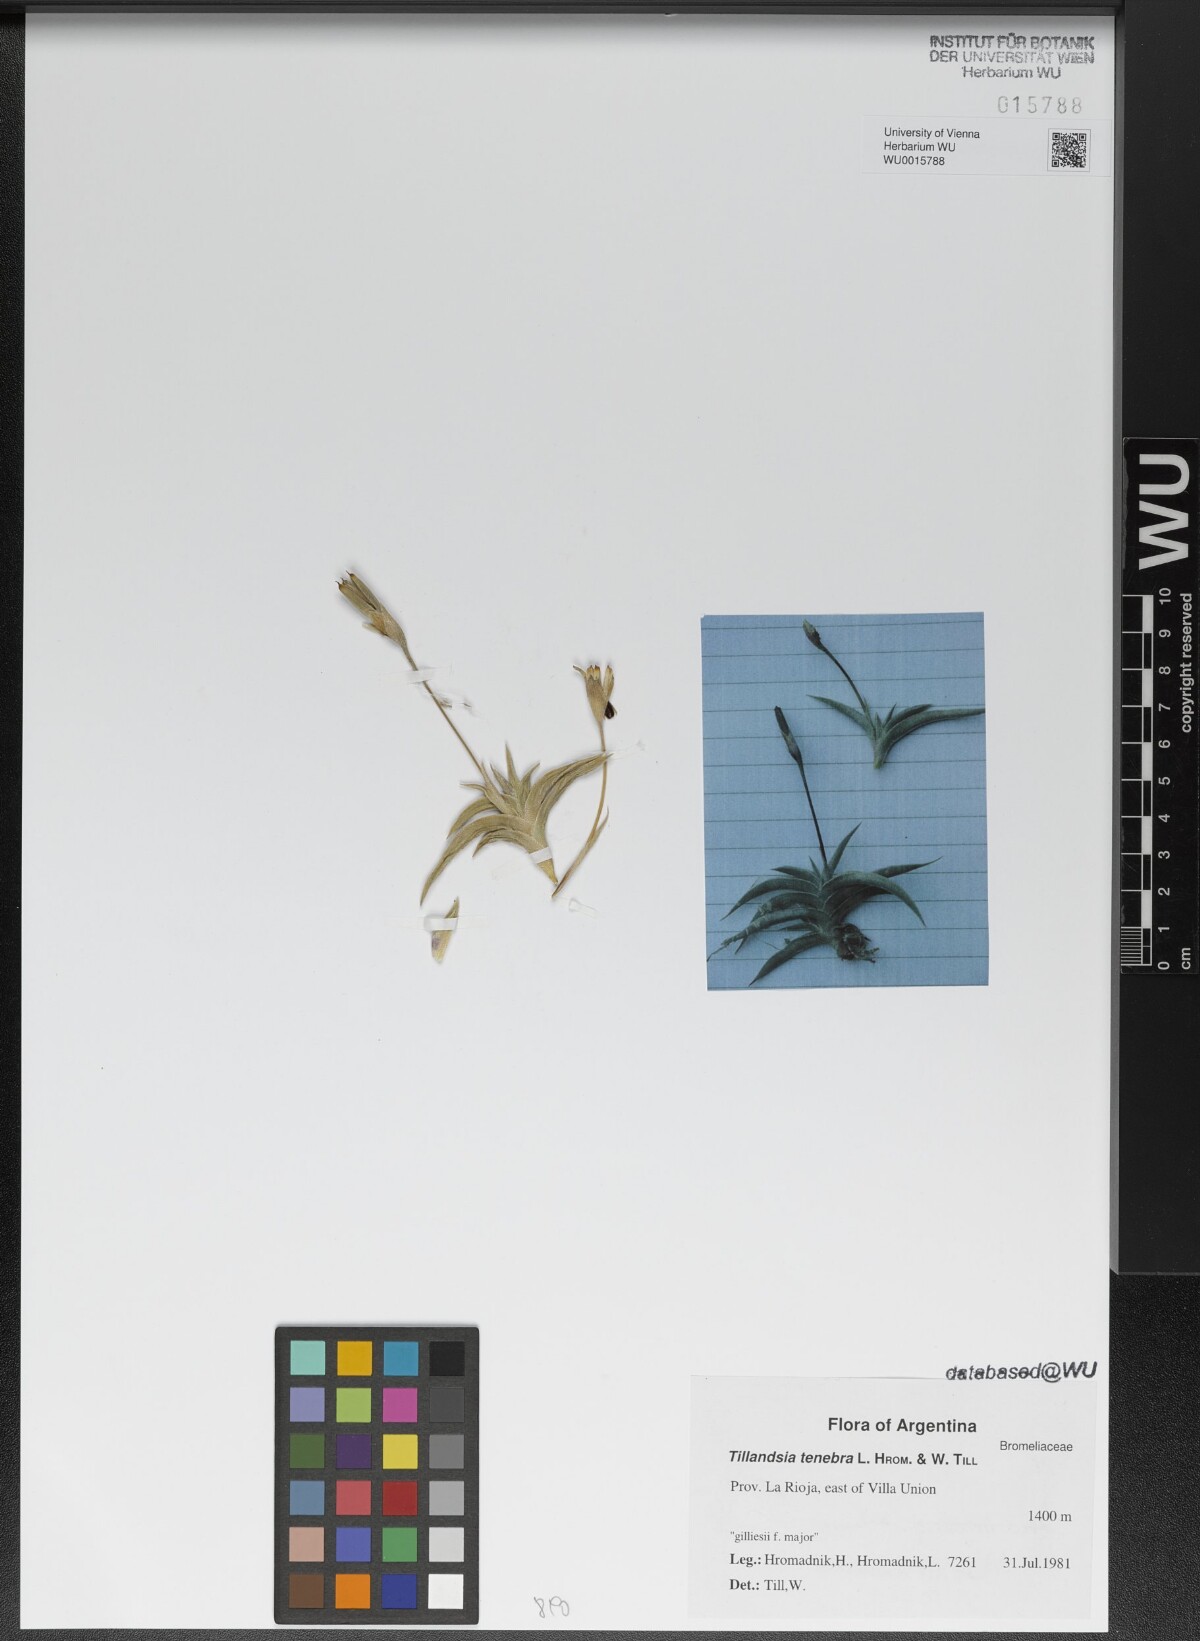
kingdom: Plantae
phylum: Tracheophyta
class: Liliopsida
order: Poales
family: Bromeliaceae
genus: Tillandsia
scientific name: Tillandsia tenebra
